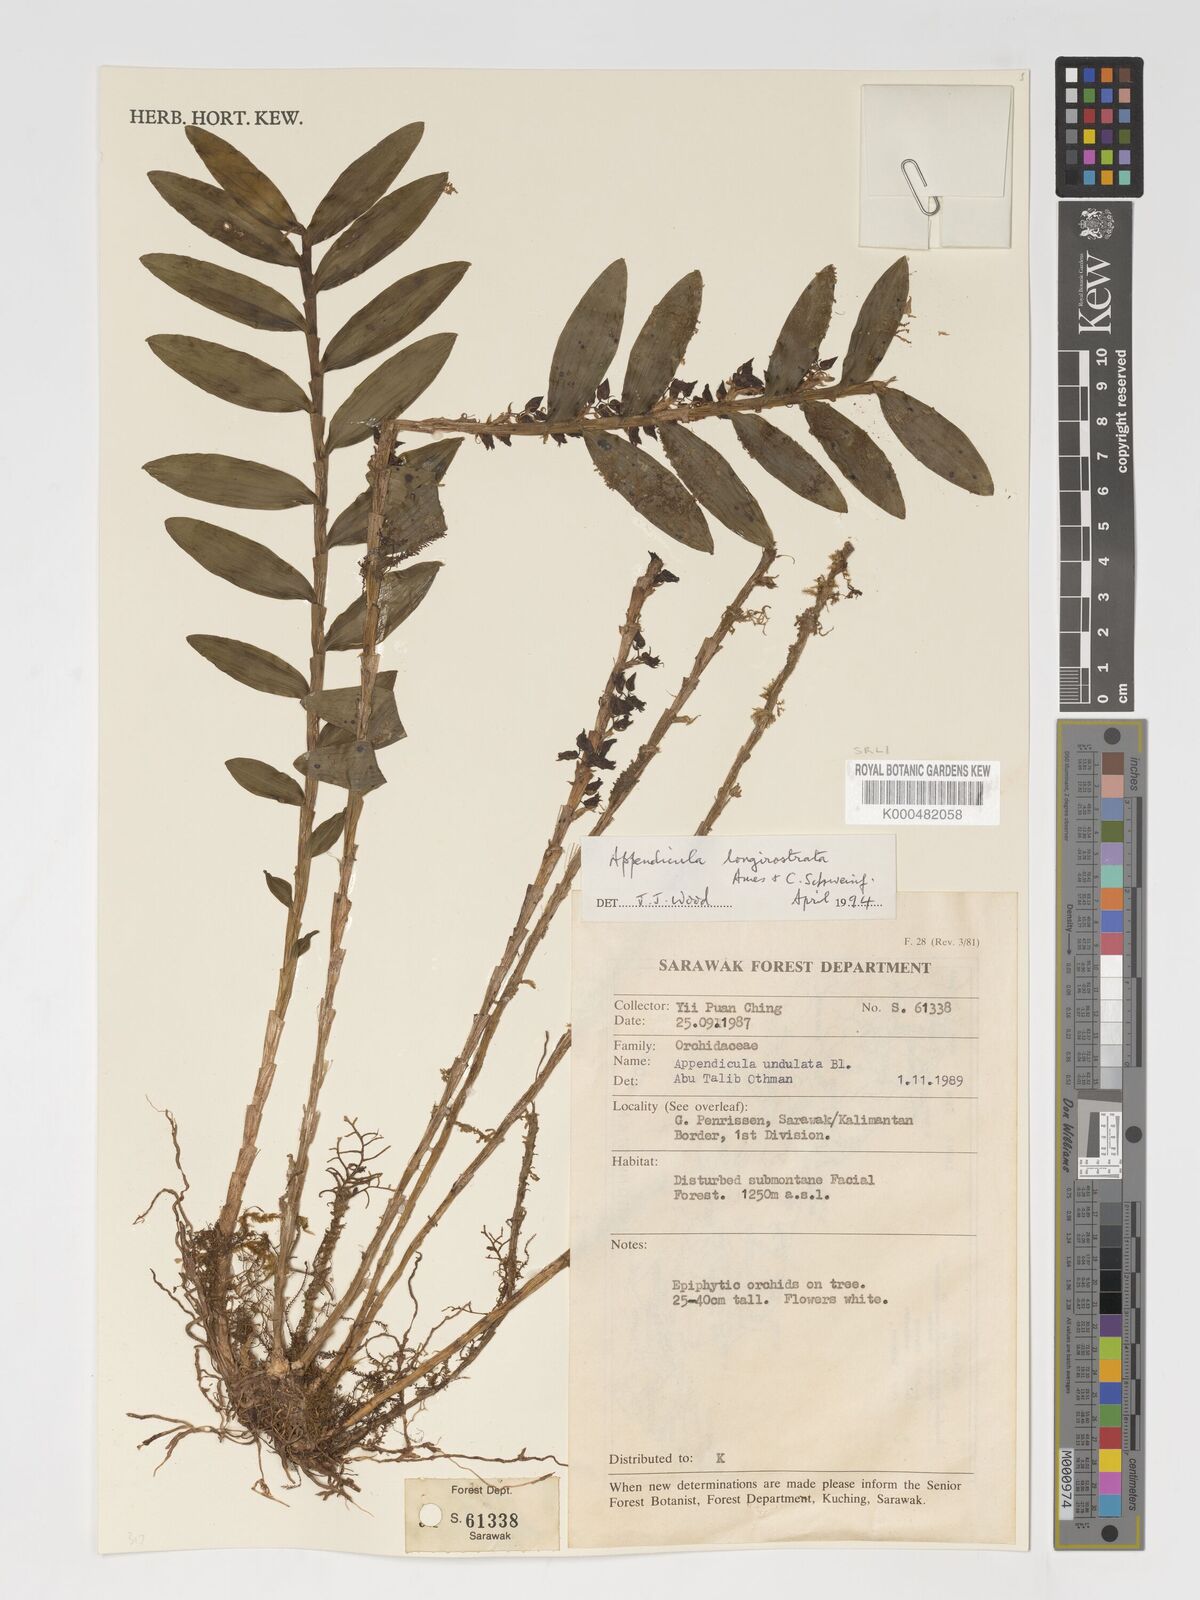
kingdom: Plantae
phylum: Tracheophyta
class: Liliopsida
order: Asparagales
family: Orchidaceae
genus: Appendicula
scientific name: Appendicula longirostrata
